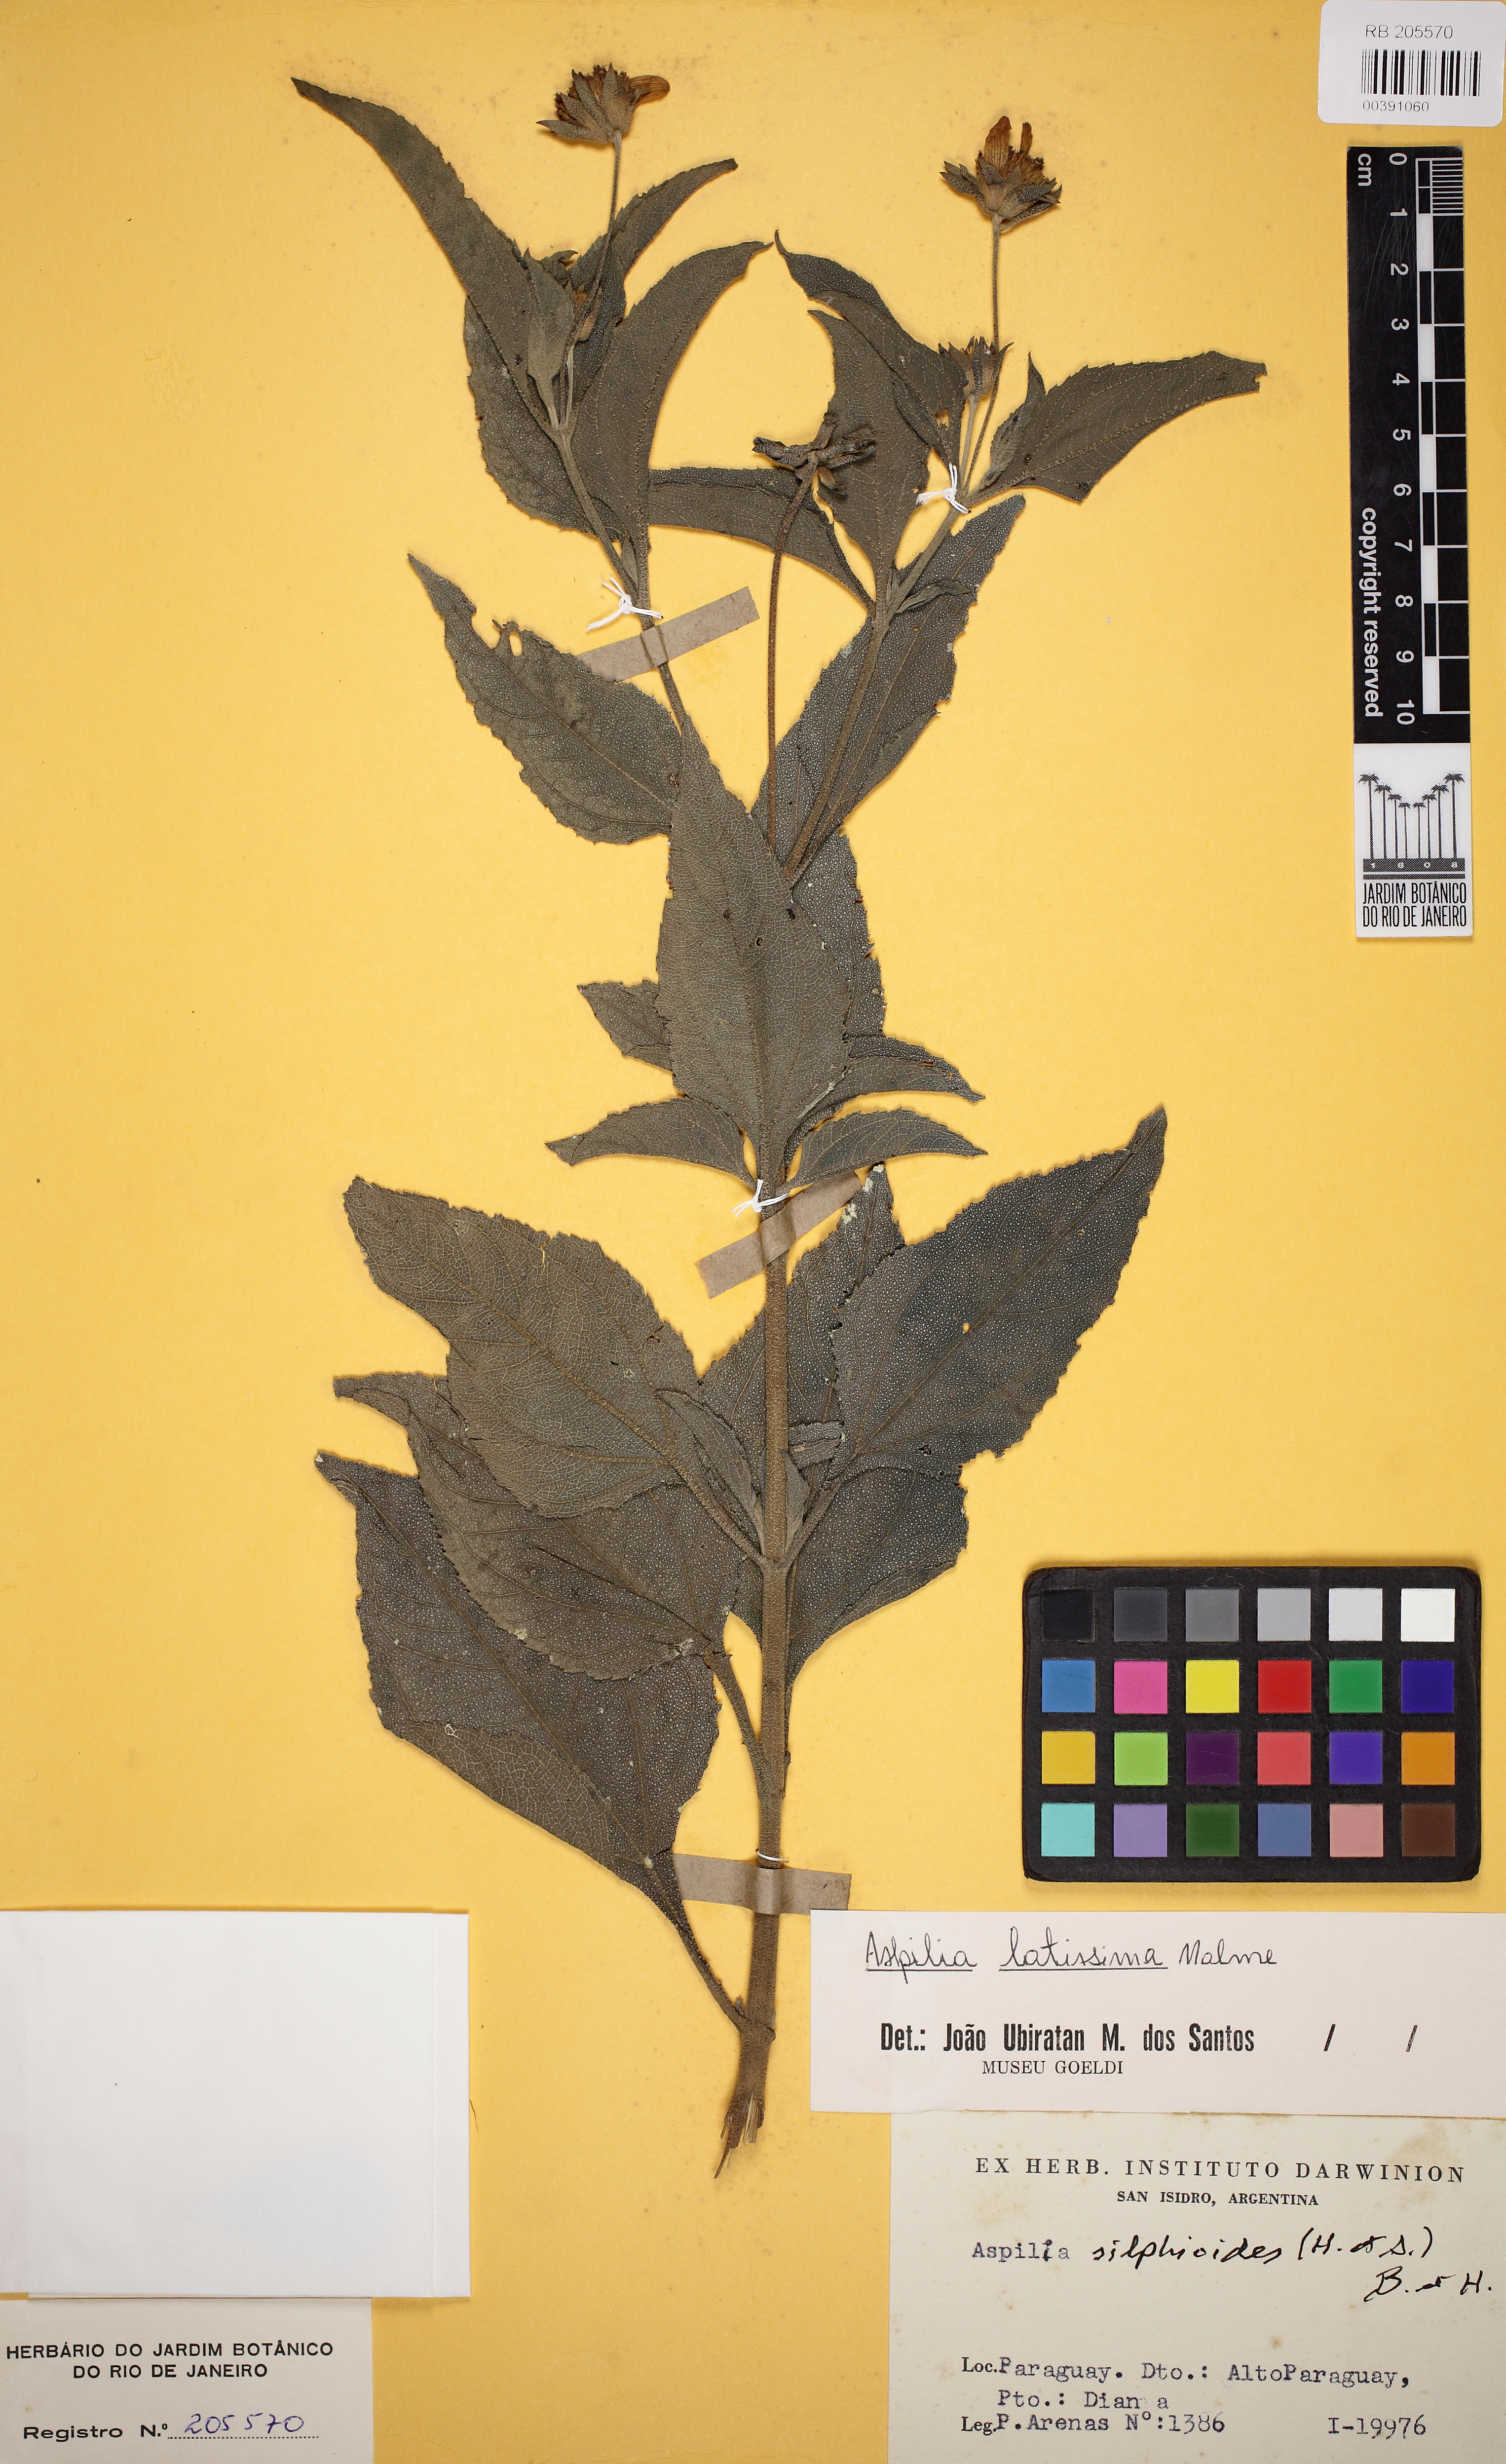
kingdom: Plantae
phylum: Tracheophyta
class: Magnoliopsida
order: Asterales
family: Asteraceae
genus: Aspilia
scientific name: Aspilia latissima
